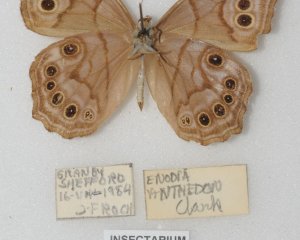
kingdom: Animalia
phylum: Arthropoda
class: Insecta
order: Lepidoptera
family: Nymphalidae
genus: Lethe
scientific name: Lethe anthedon
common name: Northern Pearly-Eye
